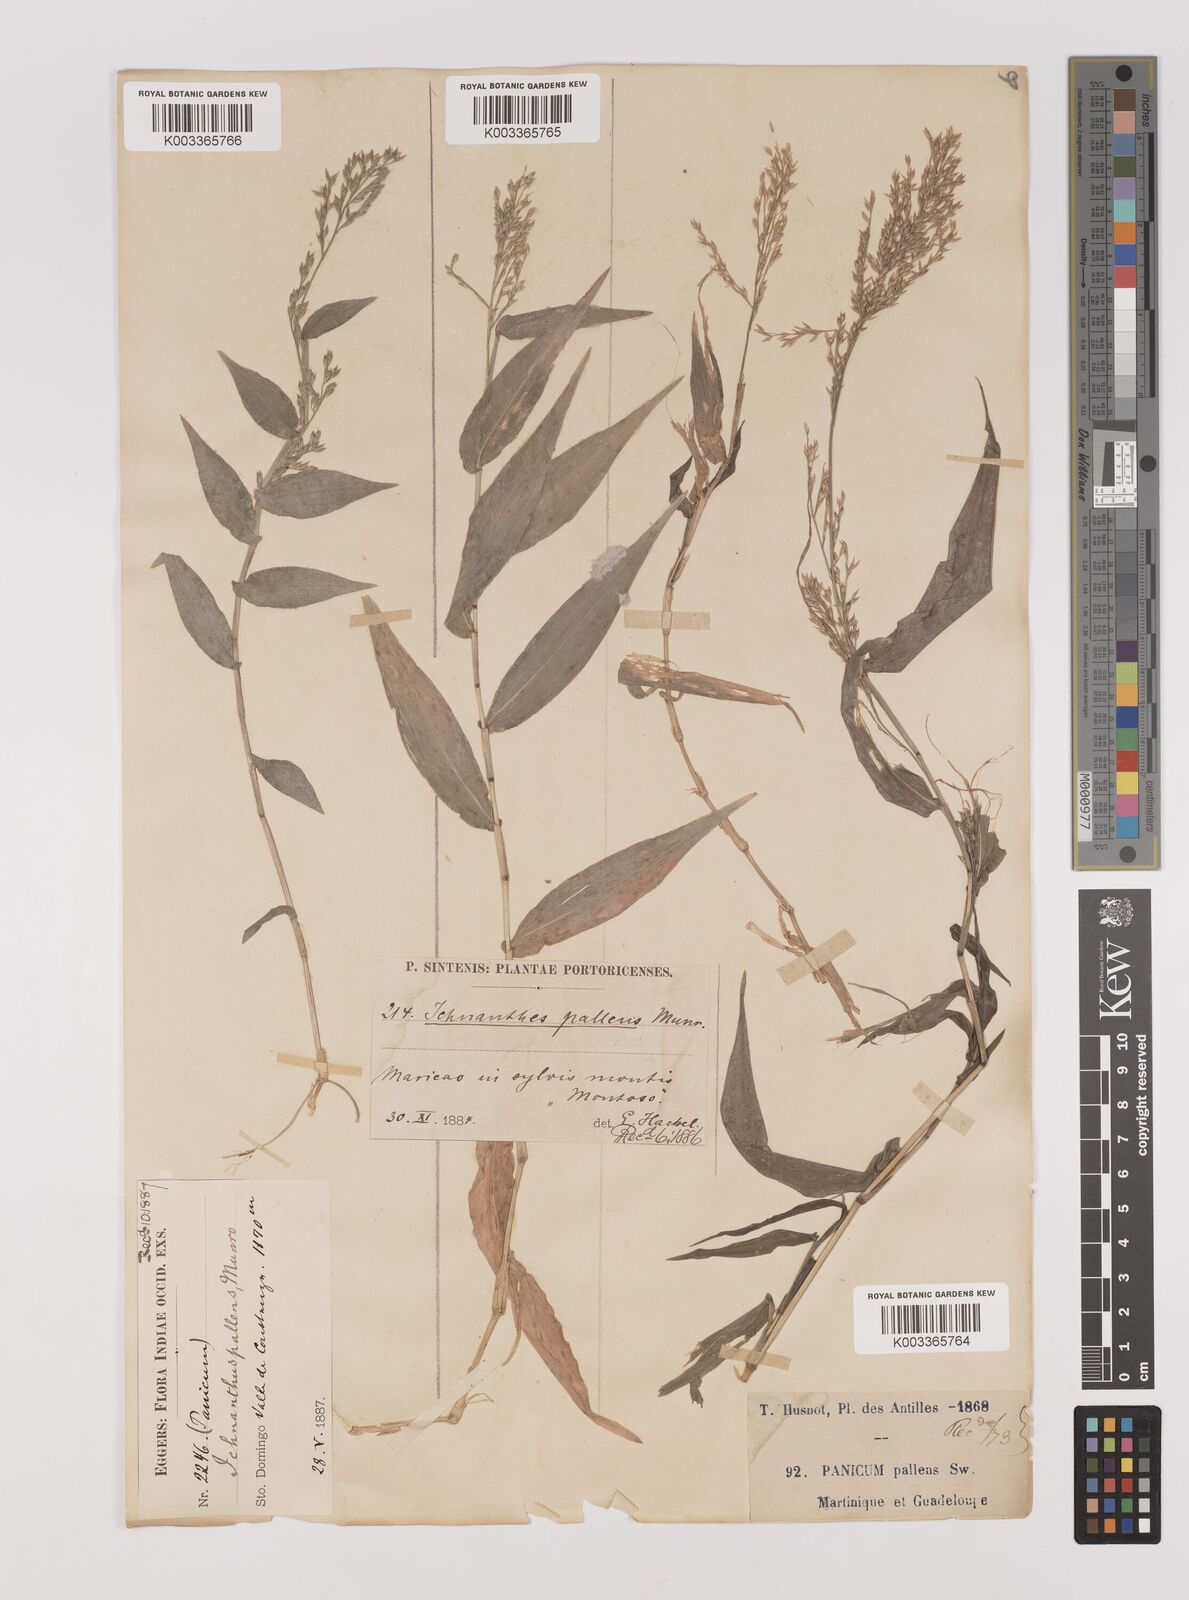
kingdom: Plantae
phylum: Tracheophyta
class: Liliopsida
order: Poales
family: Poaceae
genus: Ichnanthus
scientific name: Ichnanthus pallens
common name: Water grass
